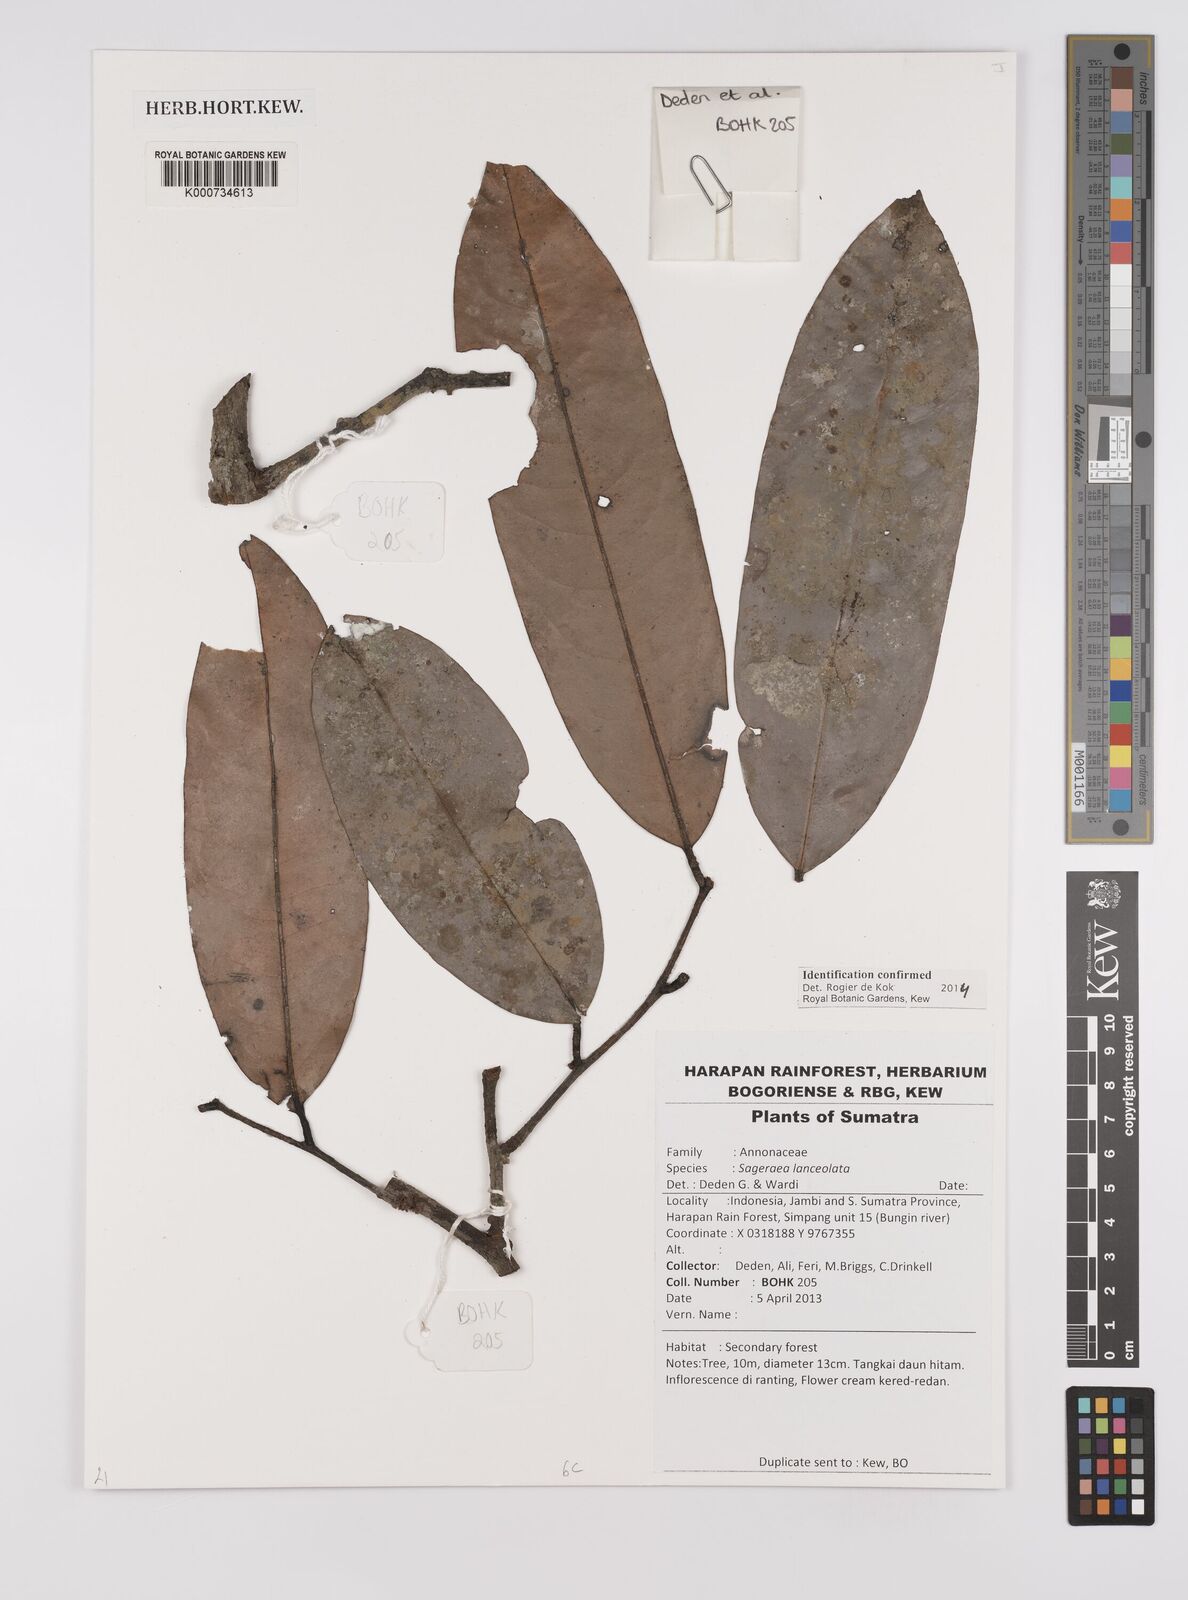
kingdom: Plantae
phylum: Tracheophyta
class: Magnoliopsida
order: Magnoliales
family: Annonaceae
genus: Sageraea
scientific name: Sageraea lanceolata
